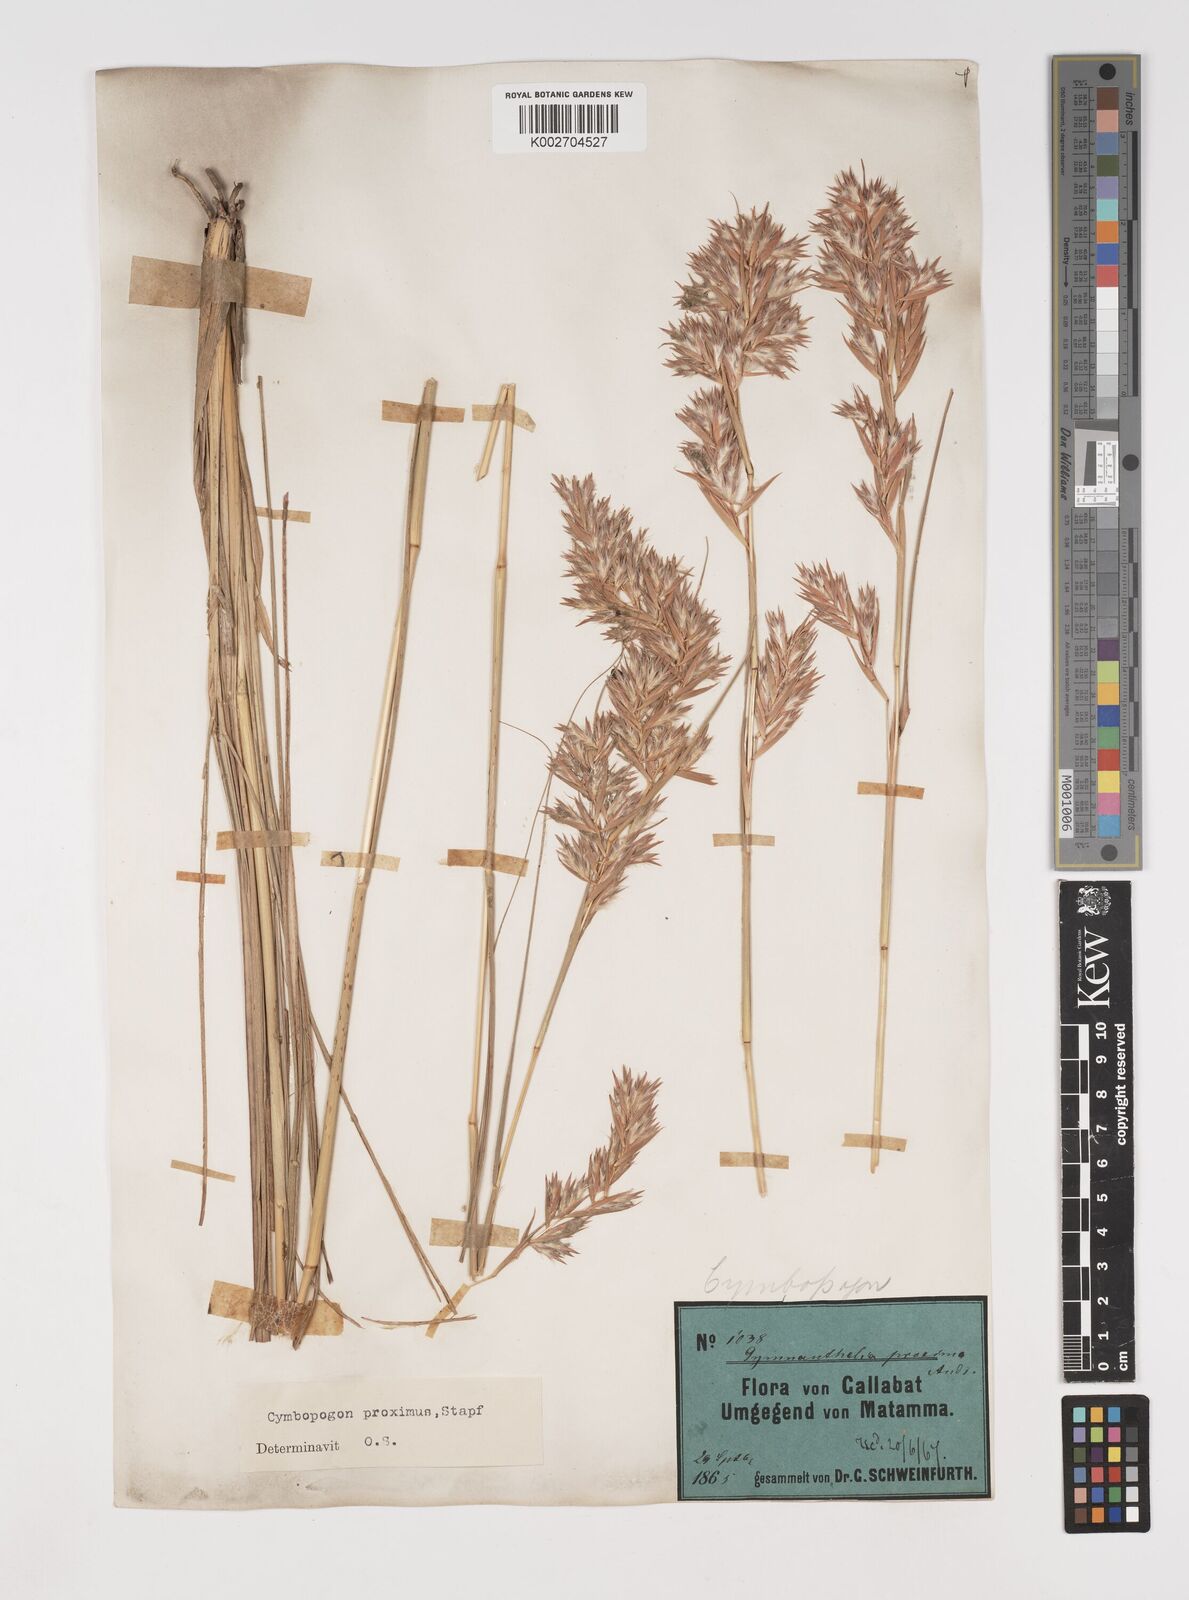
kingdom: Plantae
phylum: Tracheophyta
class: Liliopsida
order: Poales
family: Poaceae
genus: Cymbopogon
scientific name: Cymbopogon schoenanthus
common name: Geranium grass
